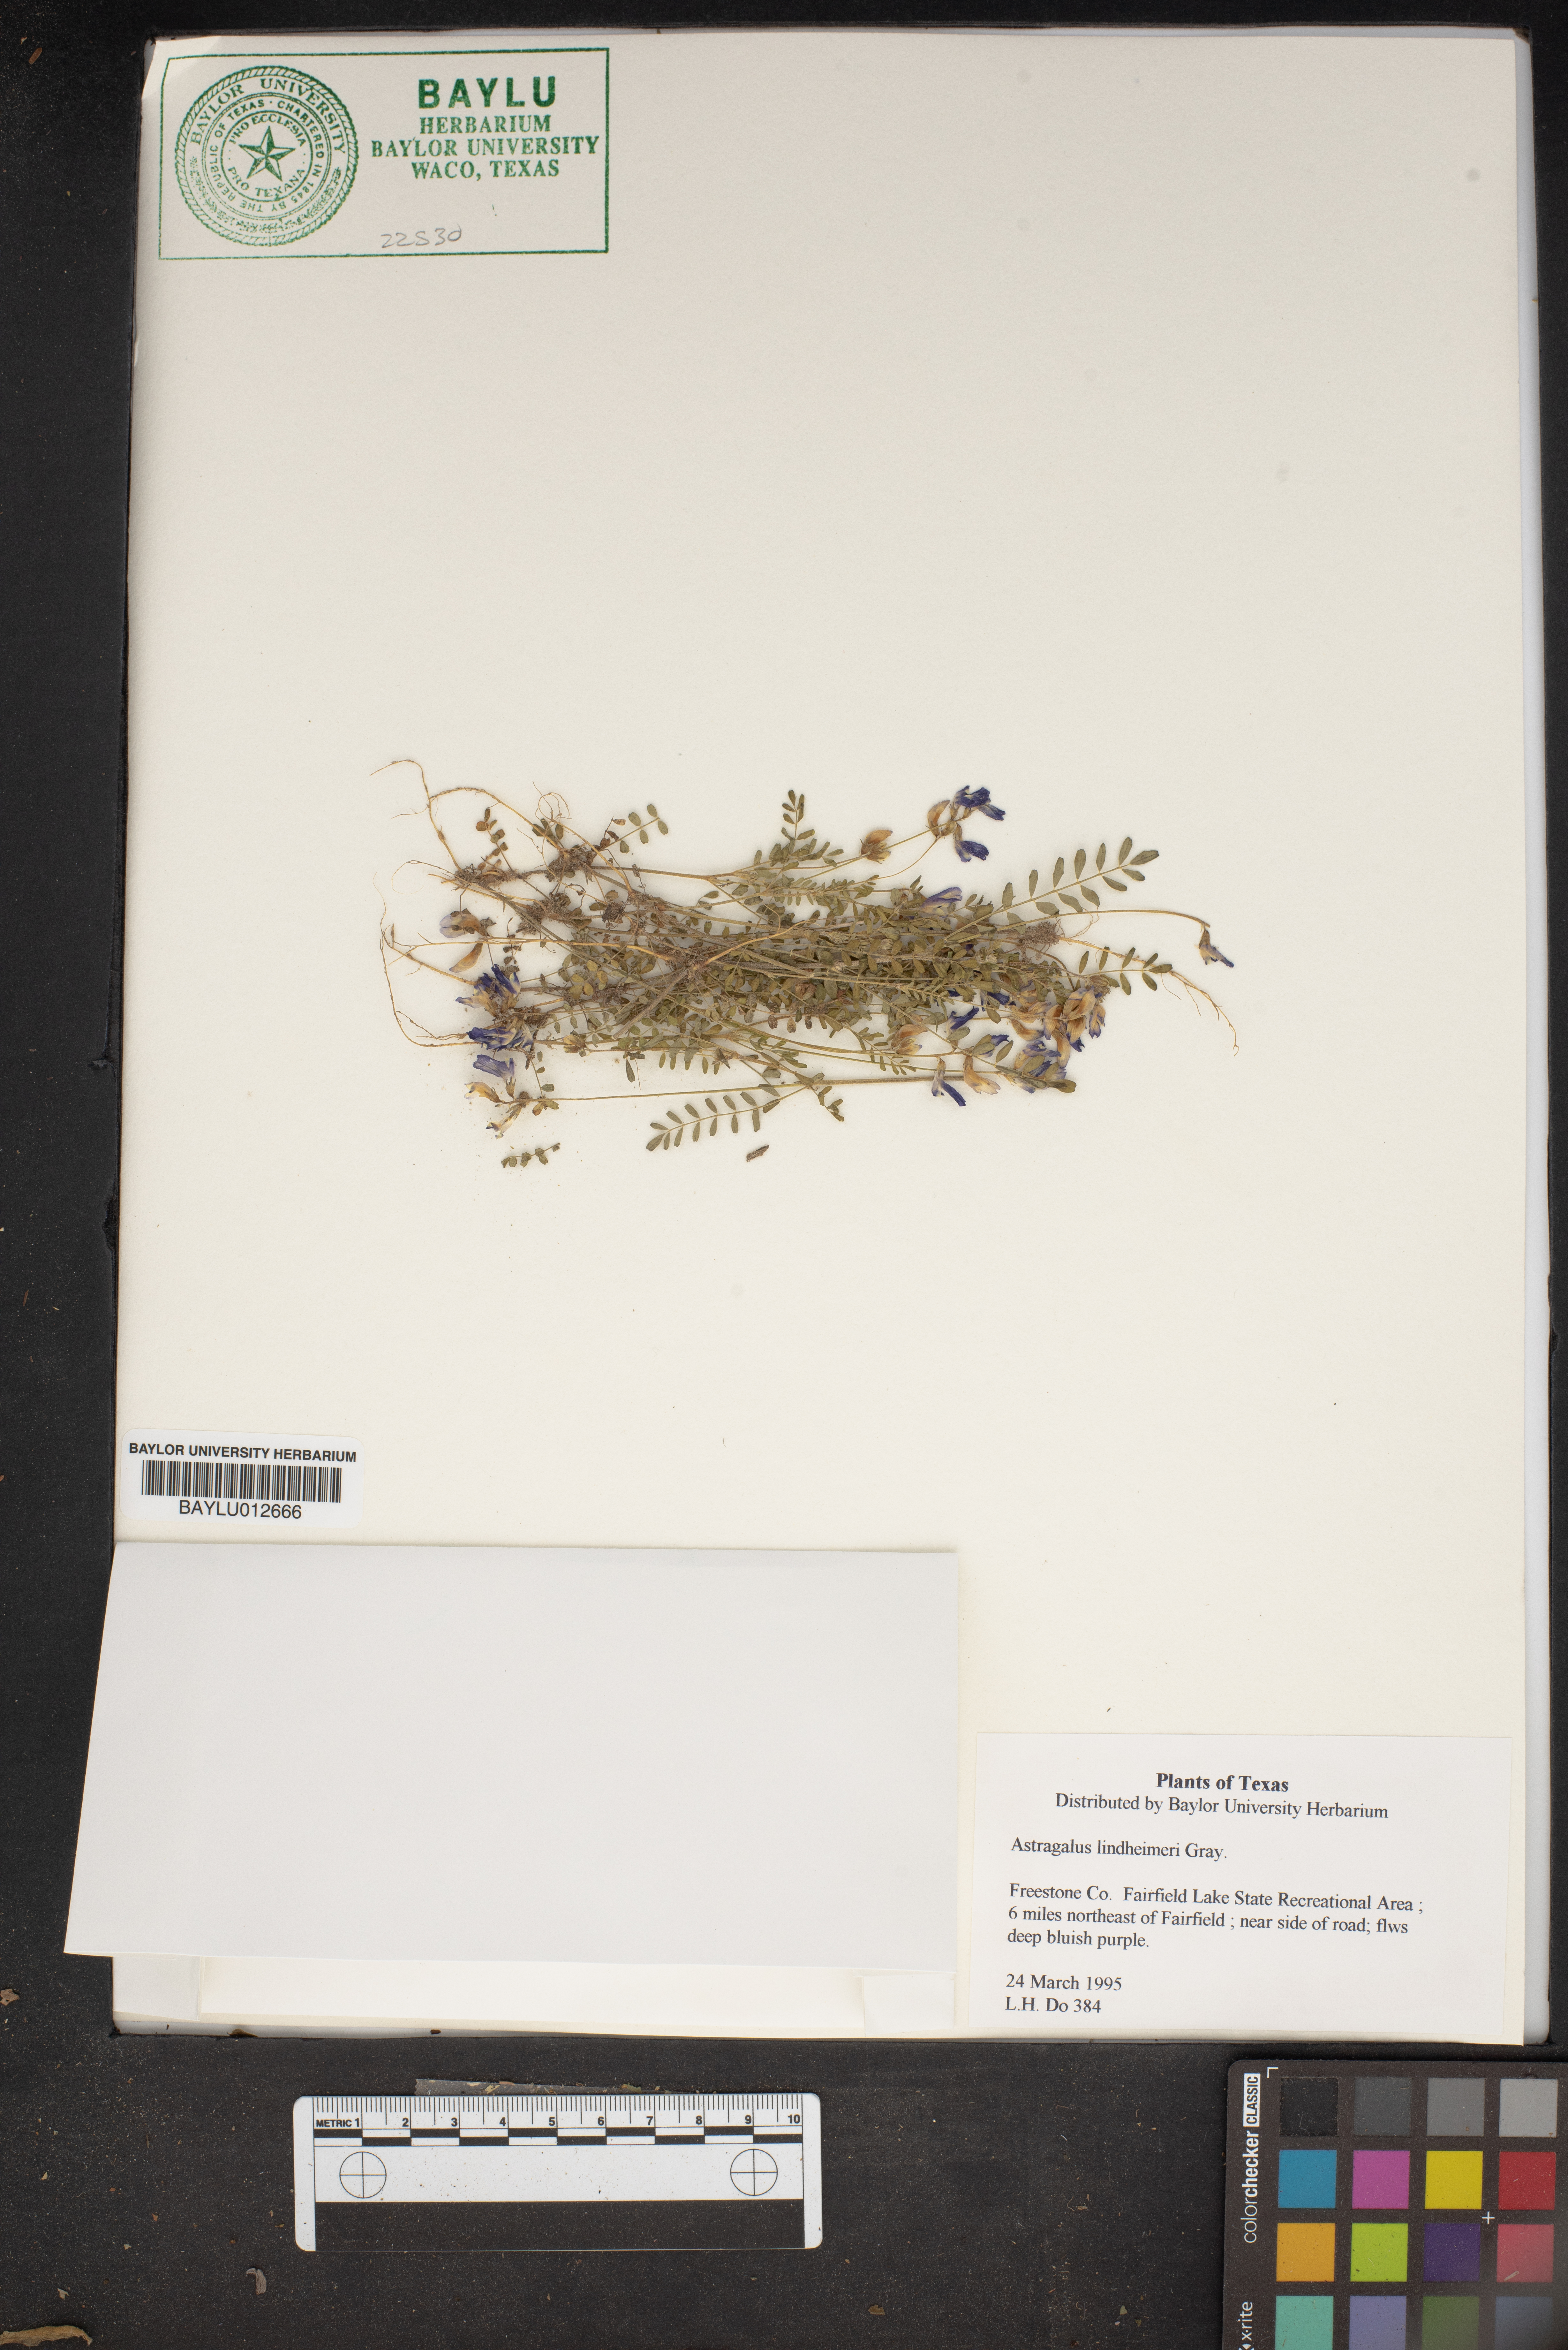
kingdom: Plantae
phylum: Tracheophyta
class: Magnoliopsida
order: Fabales
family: Fabaceae
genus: Astragalus
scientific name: Astragalus lindheimeri
